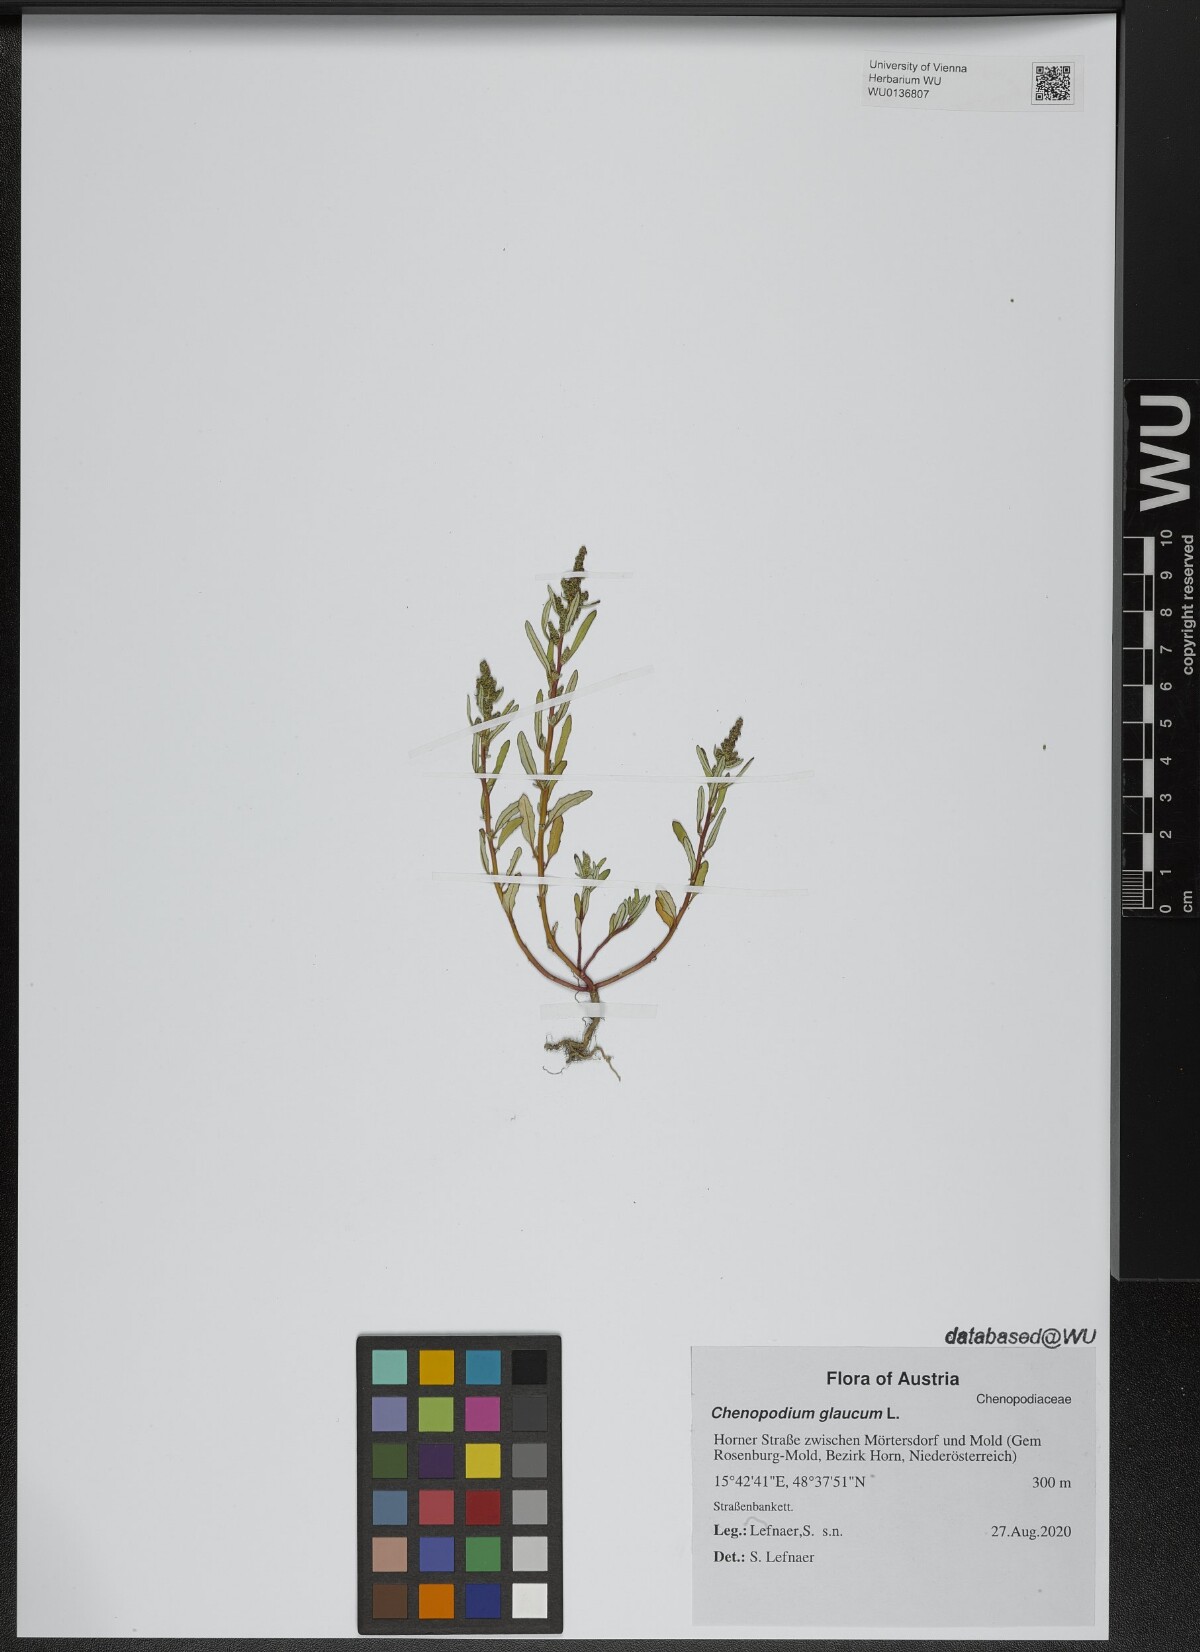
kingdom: Plantae
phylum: Tracheophyta
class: Magnoliopsida
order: Caryophyllales
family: Amaranthaceae
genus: Oxybasis
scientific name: Oxybasis glauca
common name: Glaucous goosefoot
